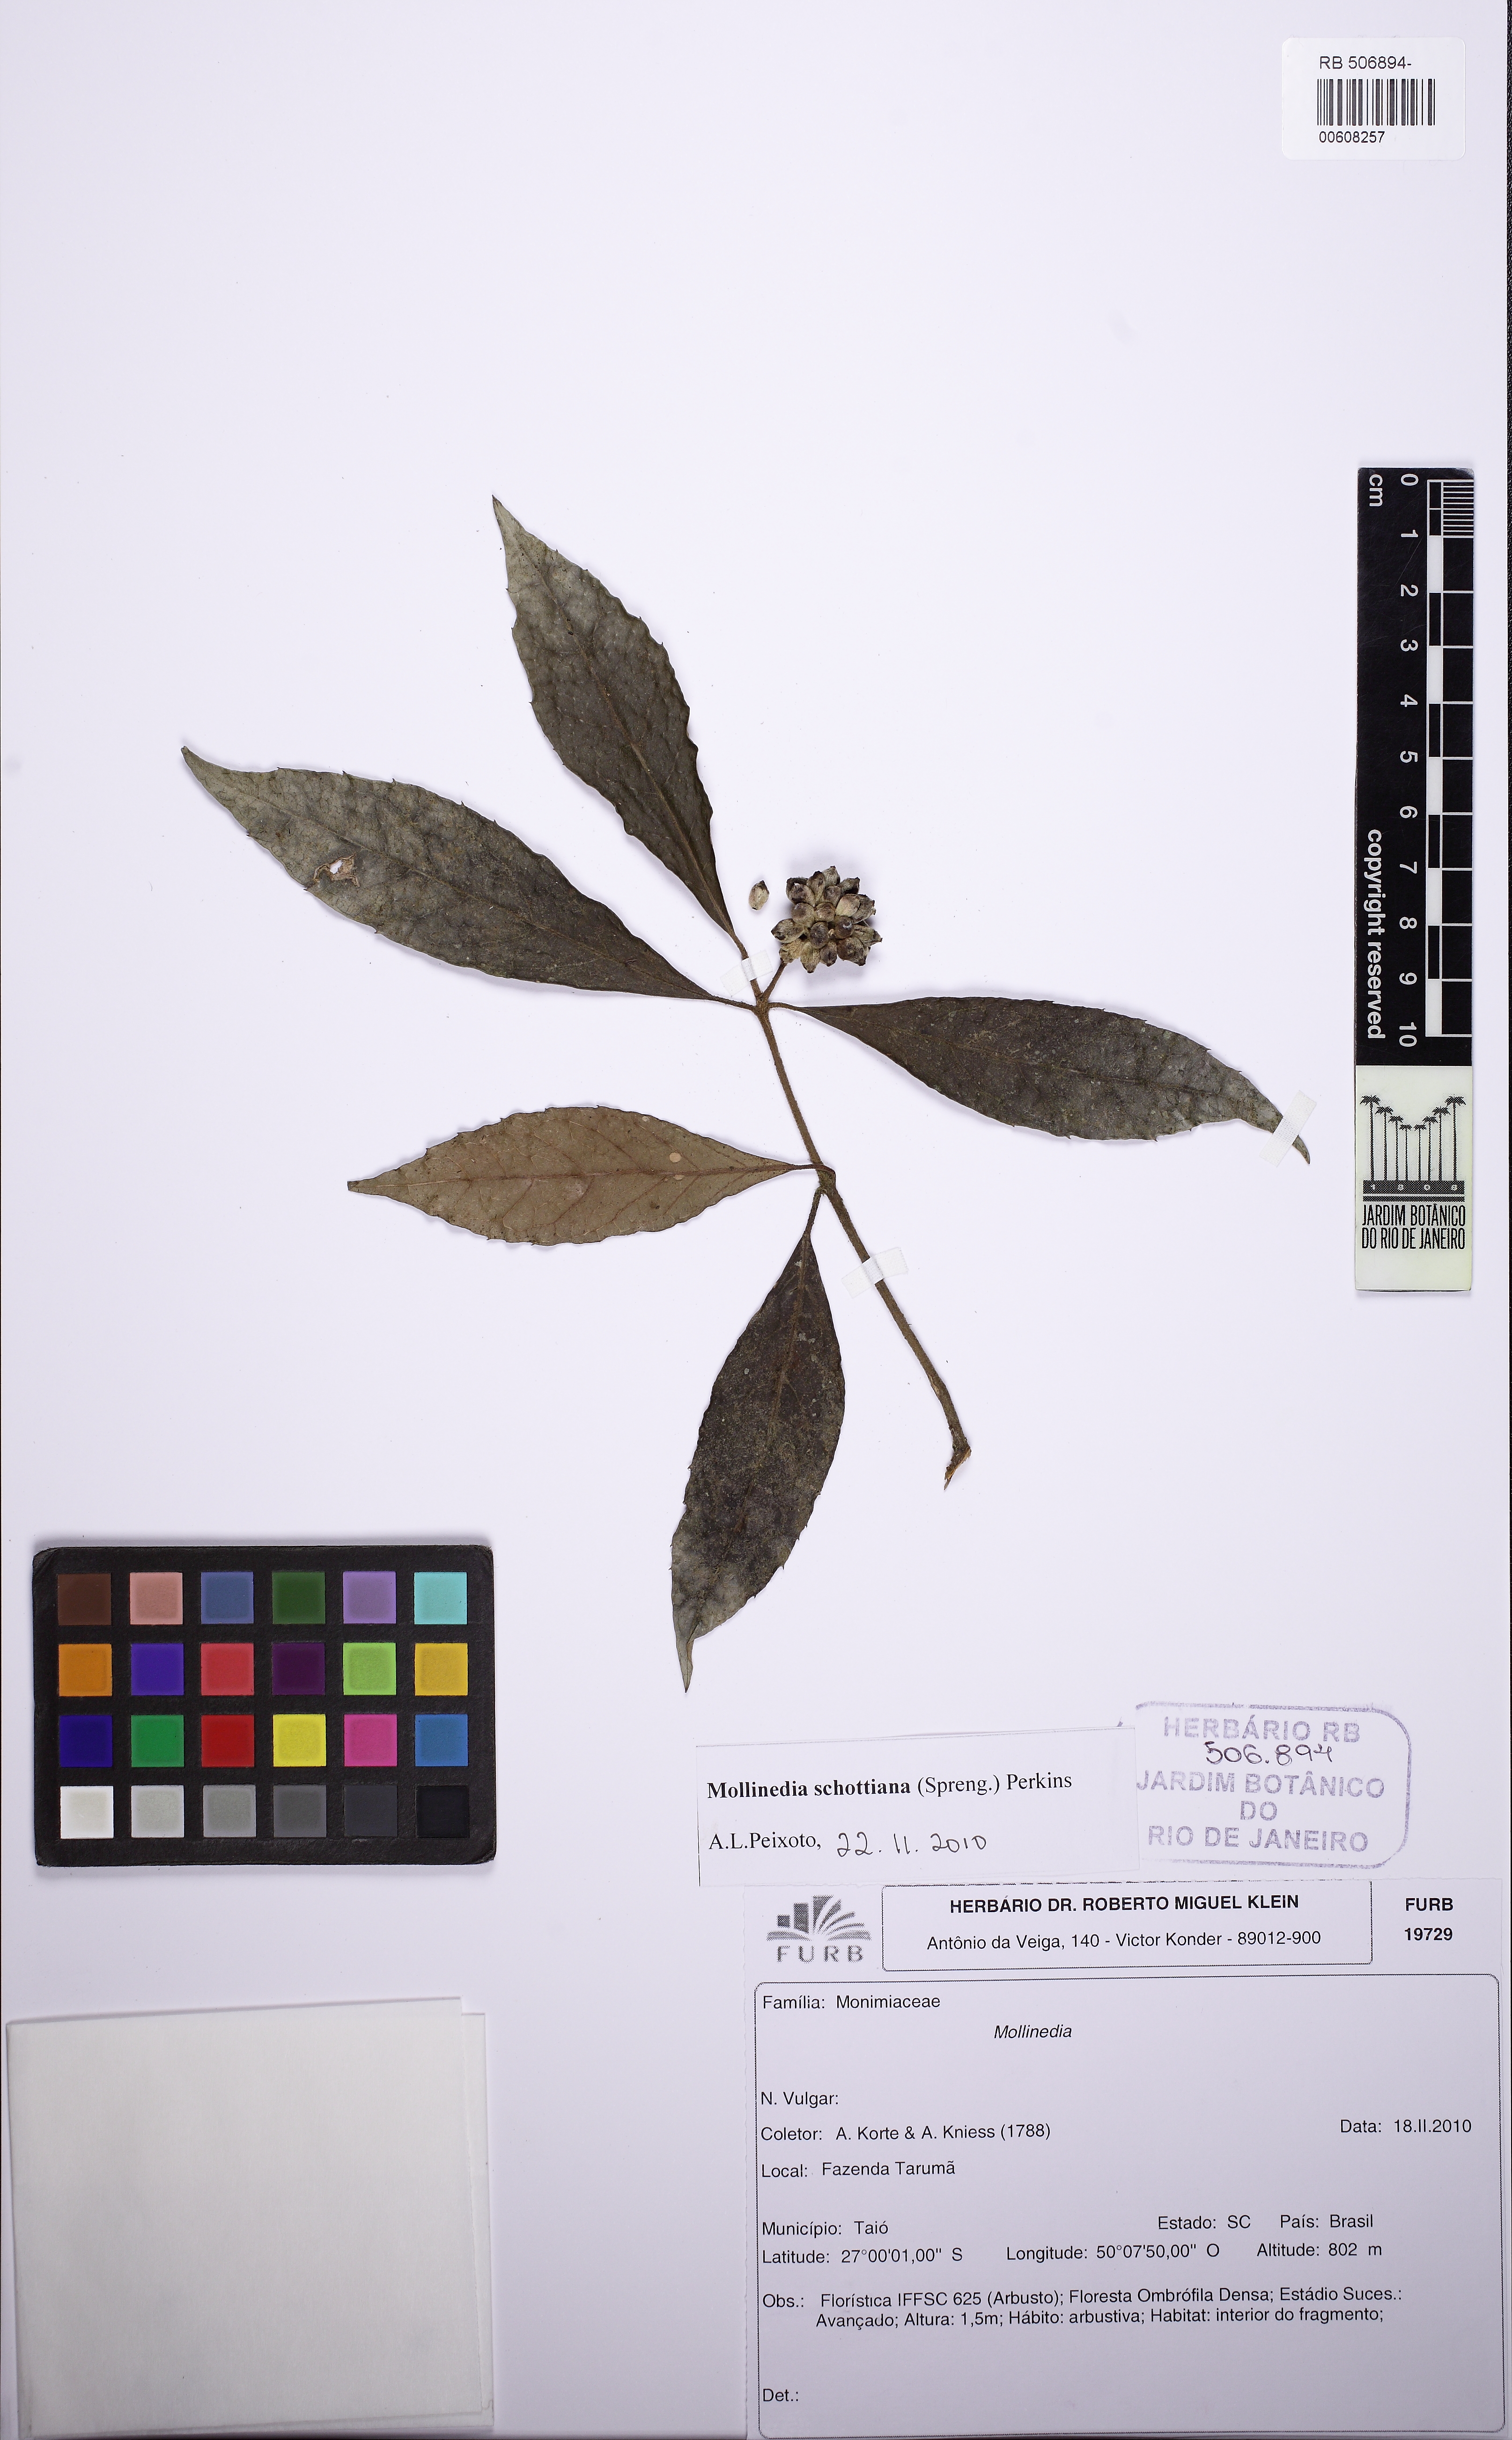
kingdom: Plantae
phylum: Tracheophyta
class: Magnoliopsida
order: Laurales
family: Monimiaceae
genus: Mollinedia
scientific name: Mollinedia umbellata
